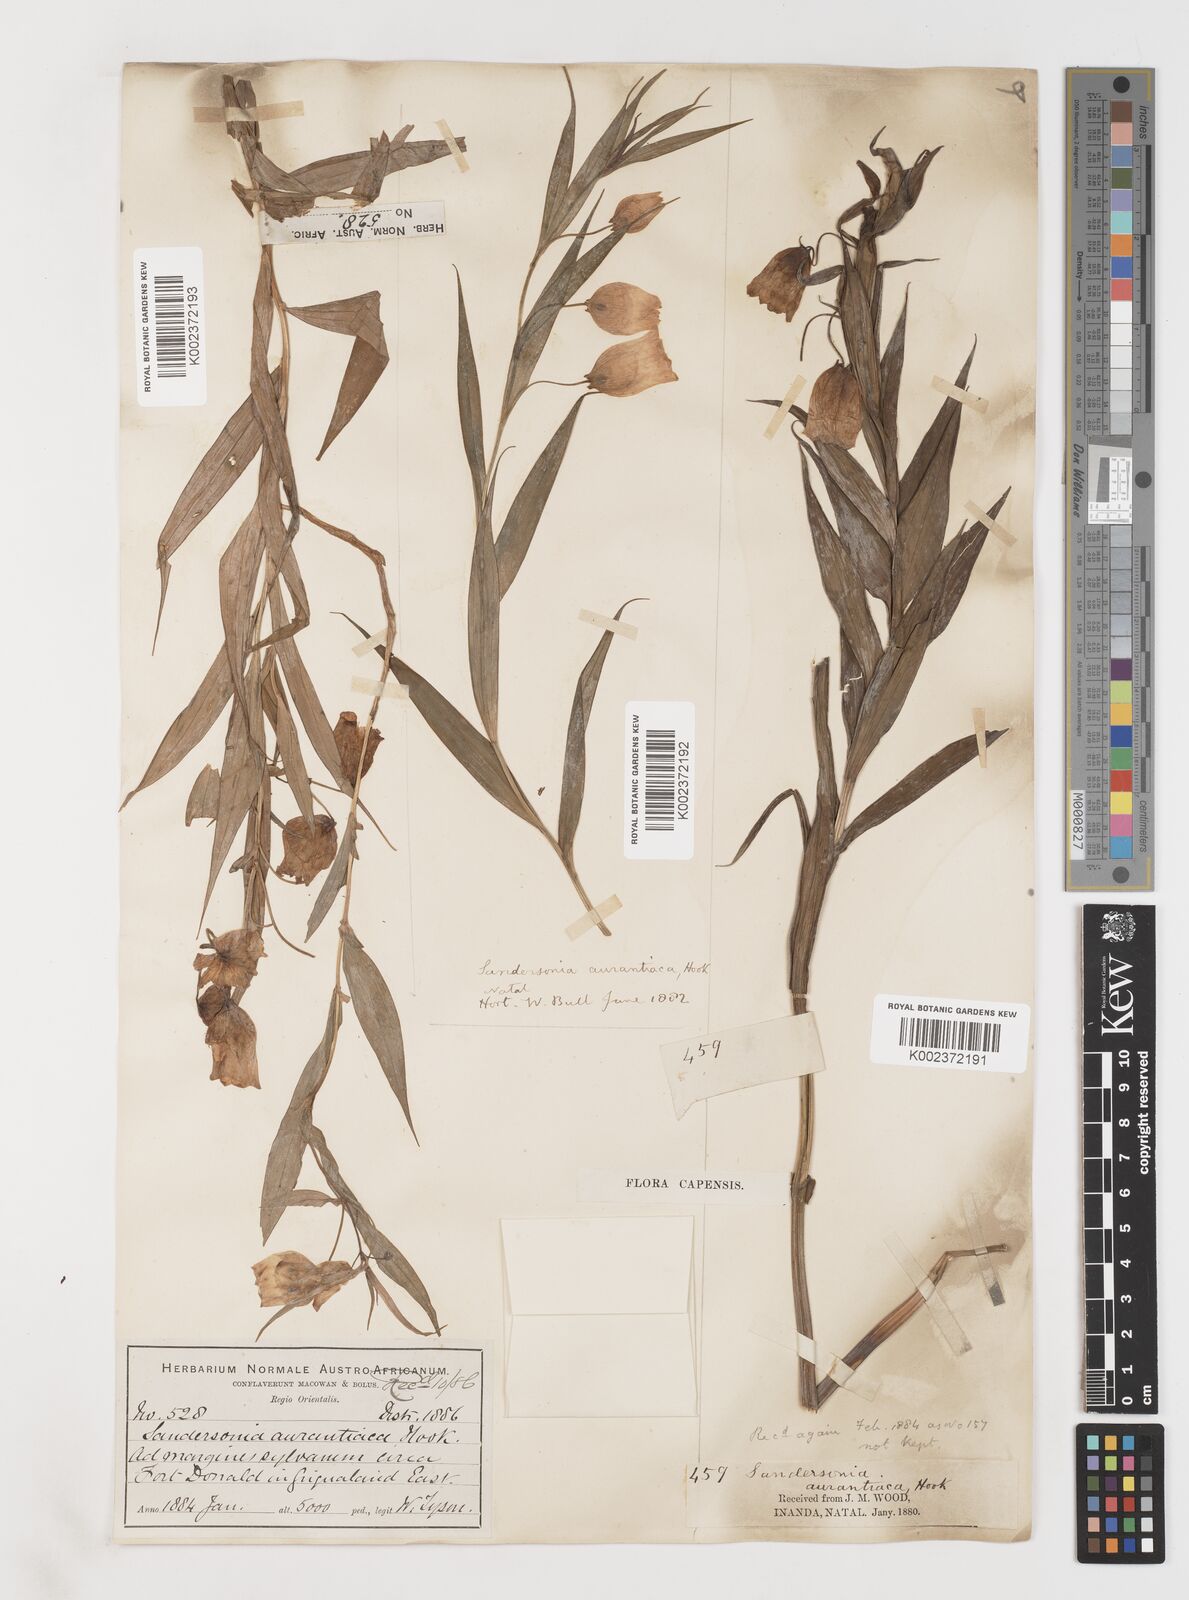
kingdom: Plantae
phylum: Tracheophyta
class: Liliopsida
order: Liliales
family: Colchicaceae
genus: Sandersonia
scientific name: Sandersonia aurantiaca
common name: Chinese-lantern-lily
